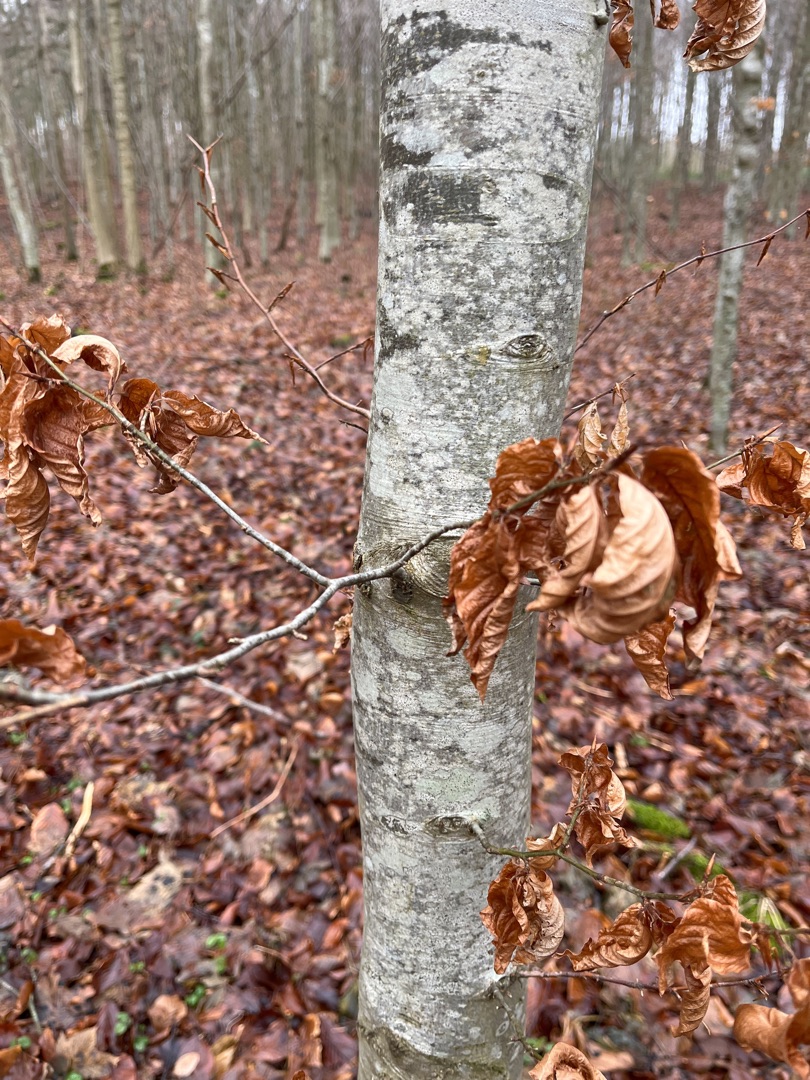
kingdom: Plantae
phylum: Tracheophyta
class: Magnoliopsida
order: Fagales
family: Fagaceae
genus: Fagus
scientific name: Fagus sylvatica
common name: Bøg
